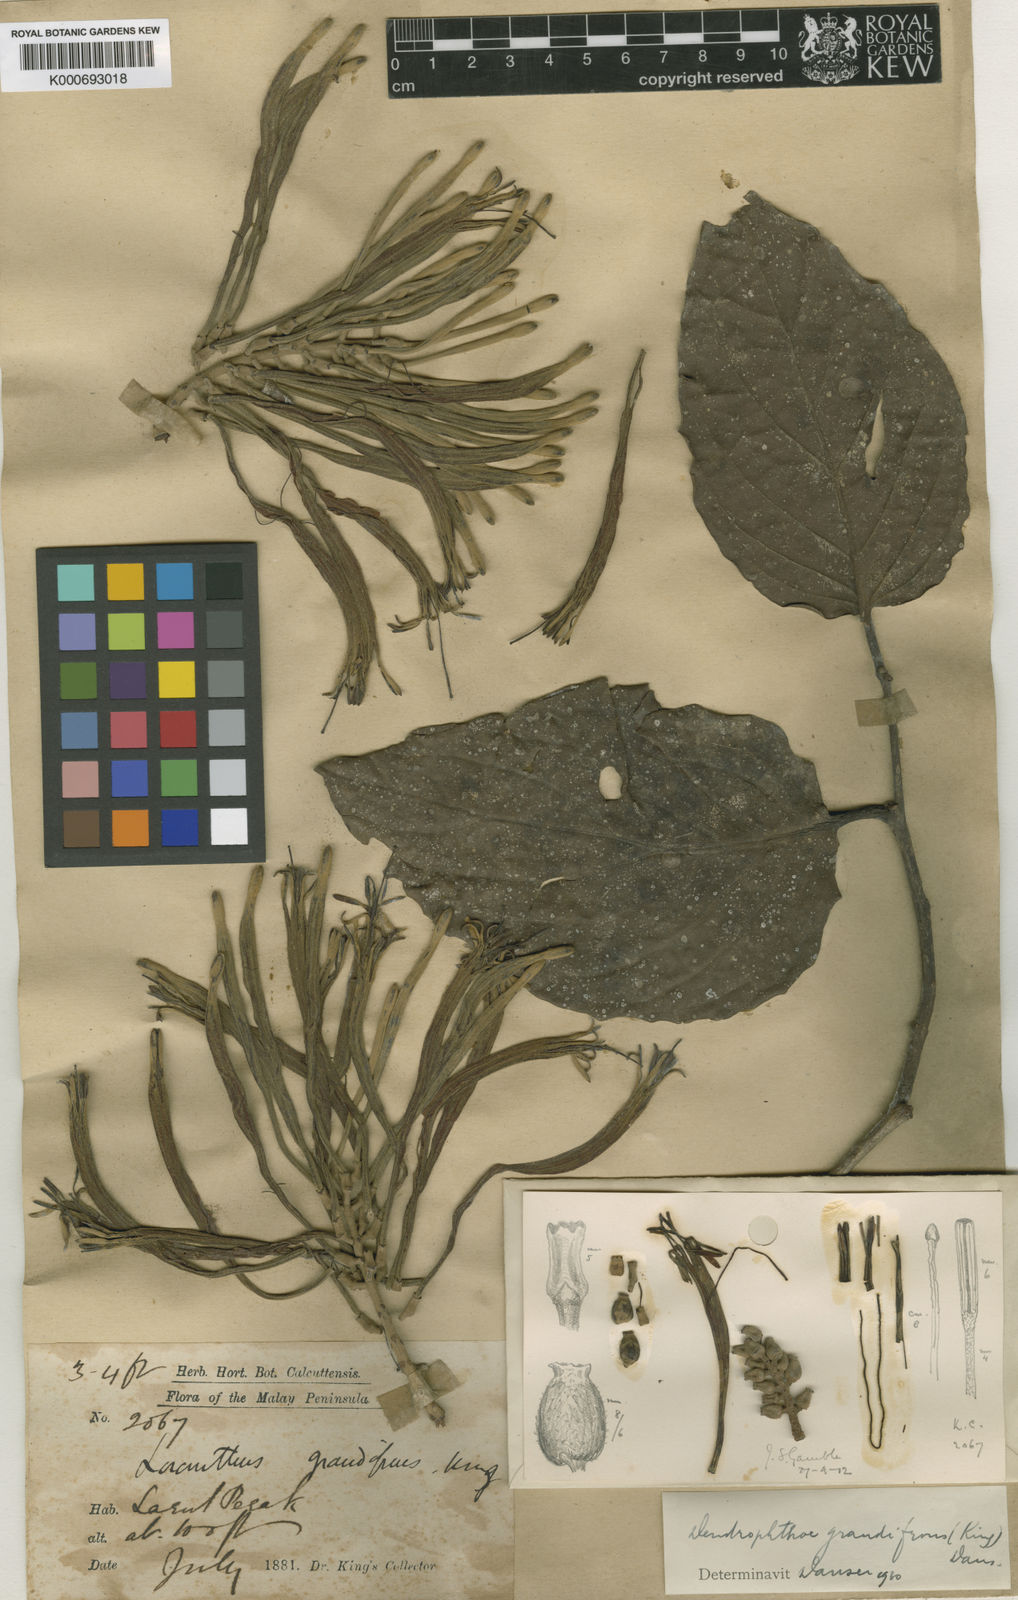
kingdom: Plantae
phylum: Tracheophyta
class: Magnoliopsida
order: Santalales
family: Loranthaceae
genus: Dendrophthoe
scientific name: Dendrophthoe incarnata
